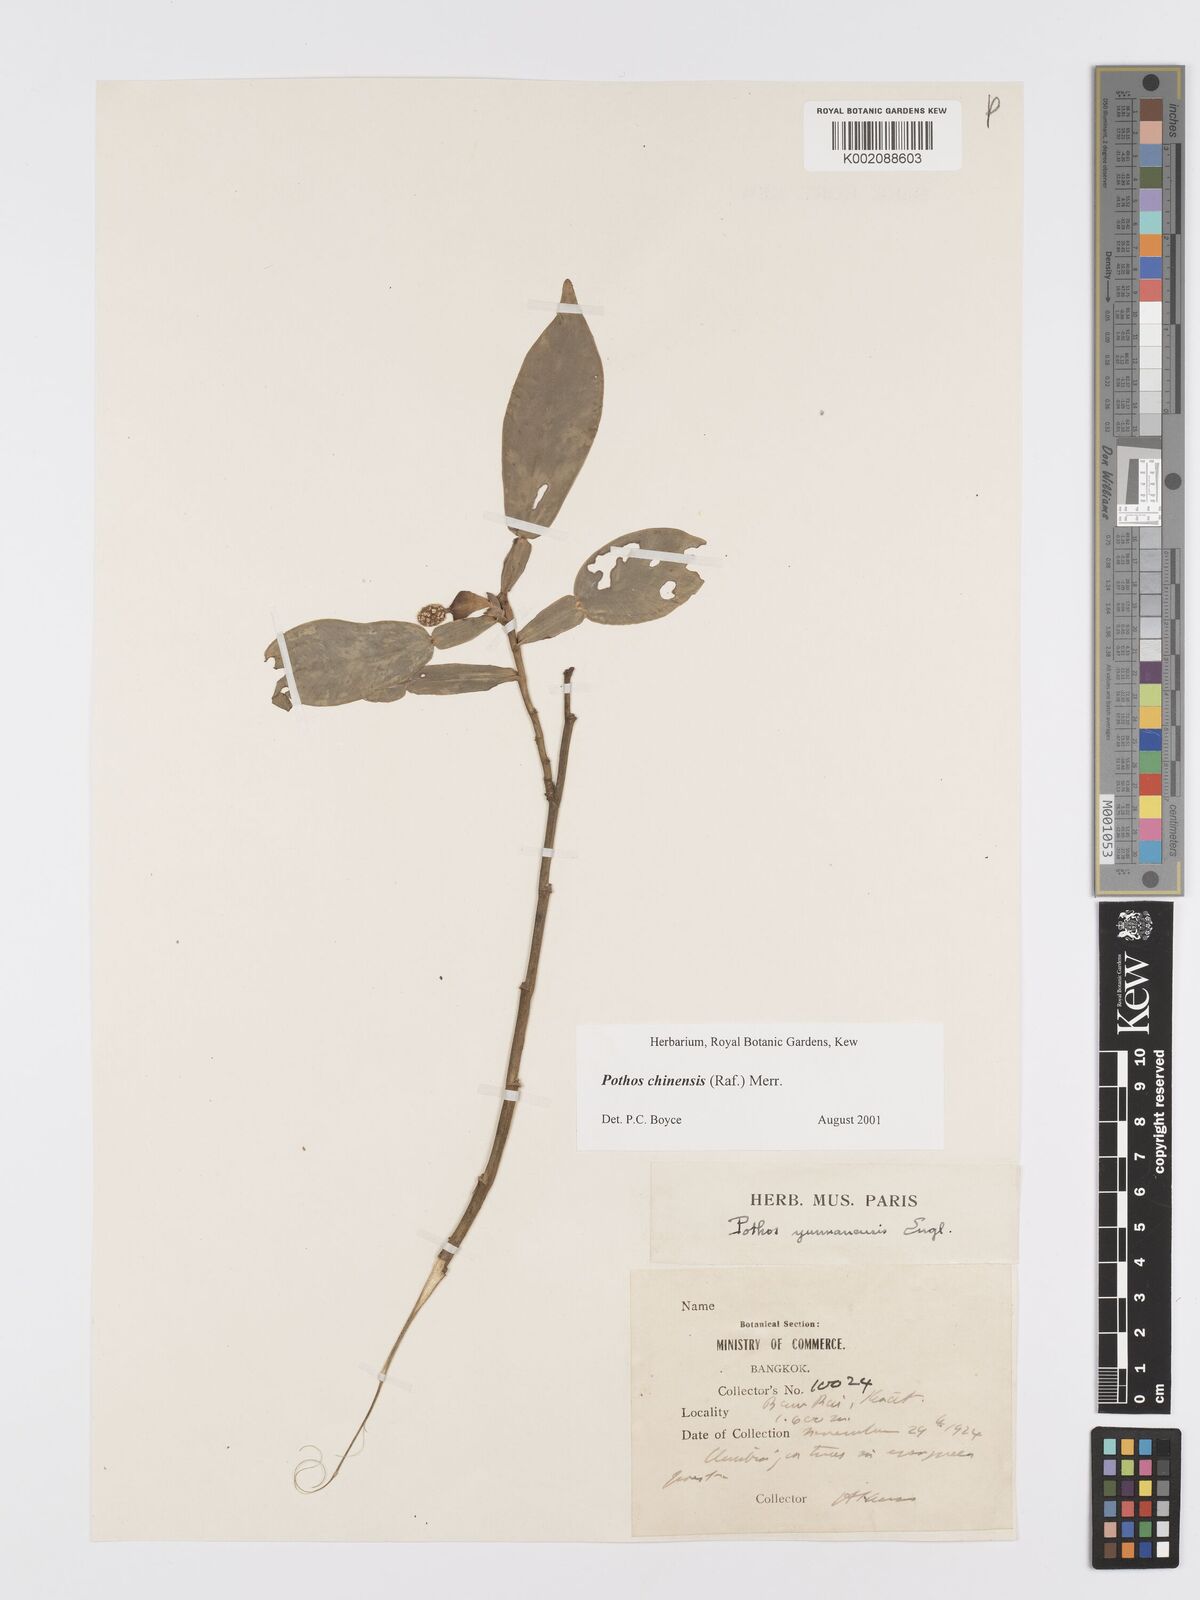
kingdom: Plantae
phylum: Tracheophyta
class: Liliopsida
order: Alismatales
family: Araceae
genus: Pothos
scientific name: Pothos chinensis
